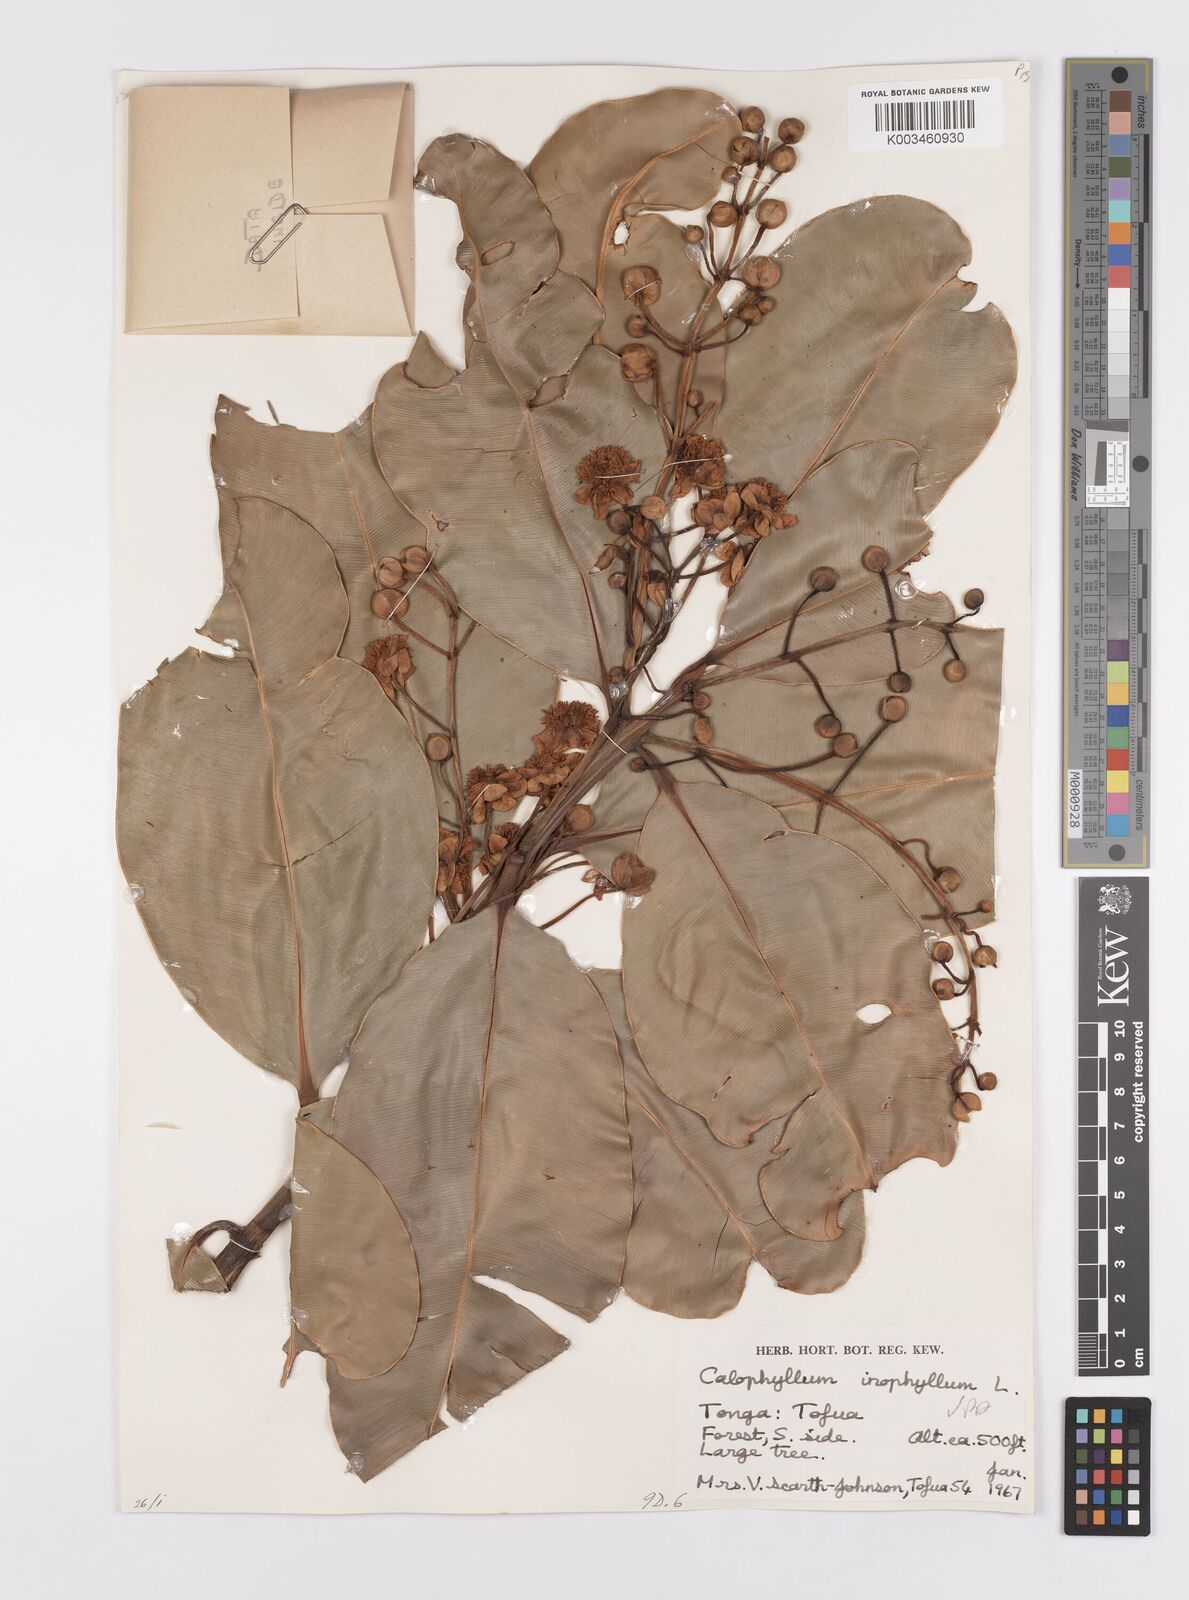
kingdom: Plantae
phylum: Tracheophyta
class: Magnoliopsida
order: Malpighiales
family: Calophyllaceae
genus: Calophyllum
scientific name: Calophyllum inophyllum
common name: Alexandrian laurel
